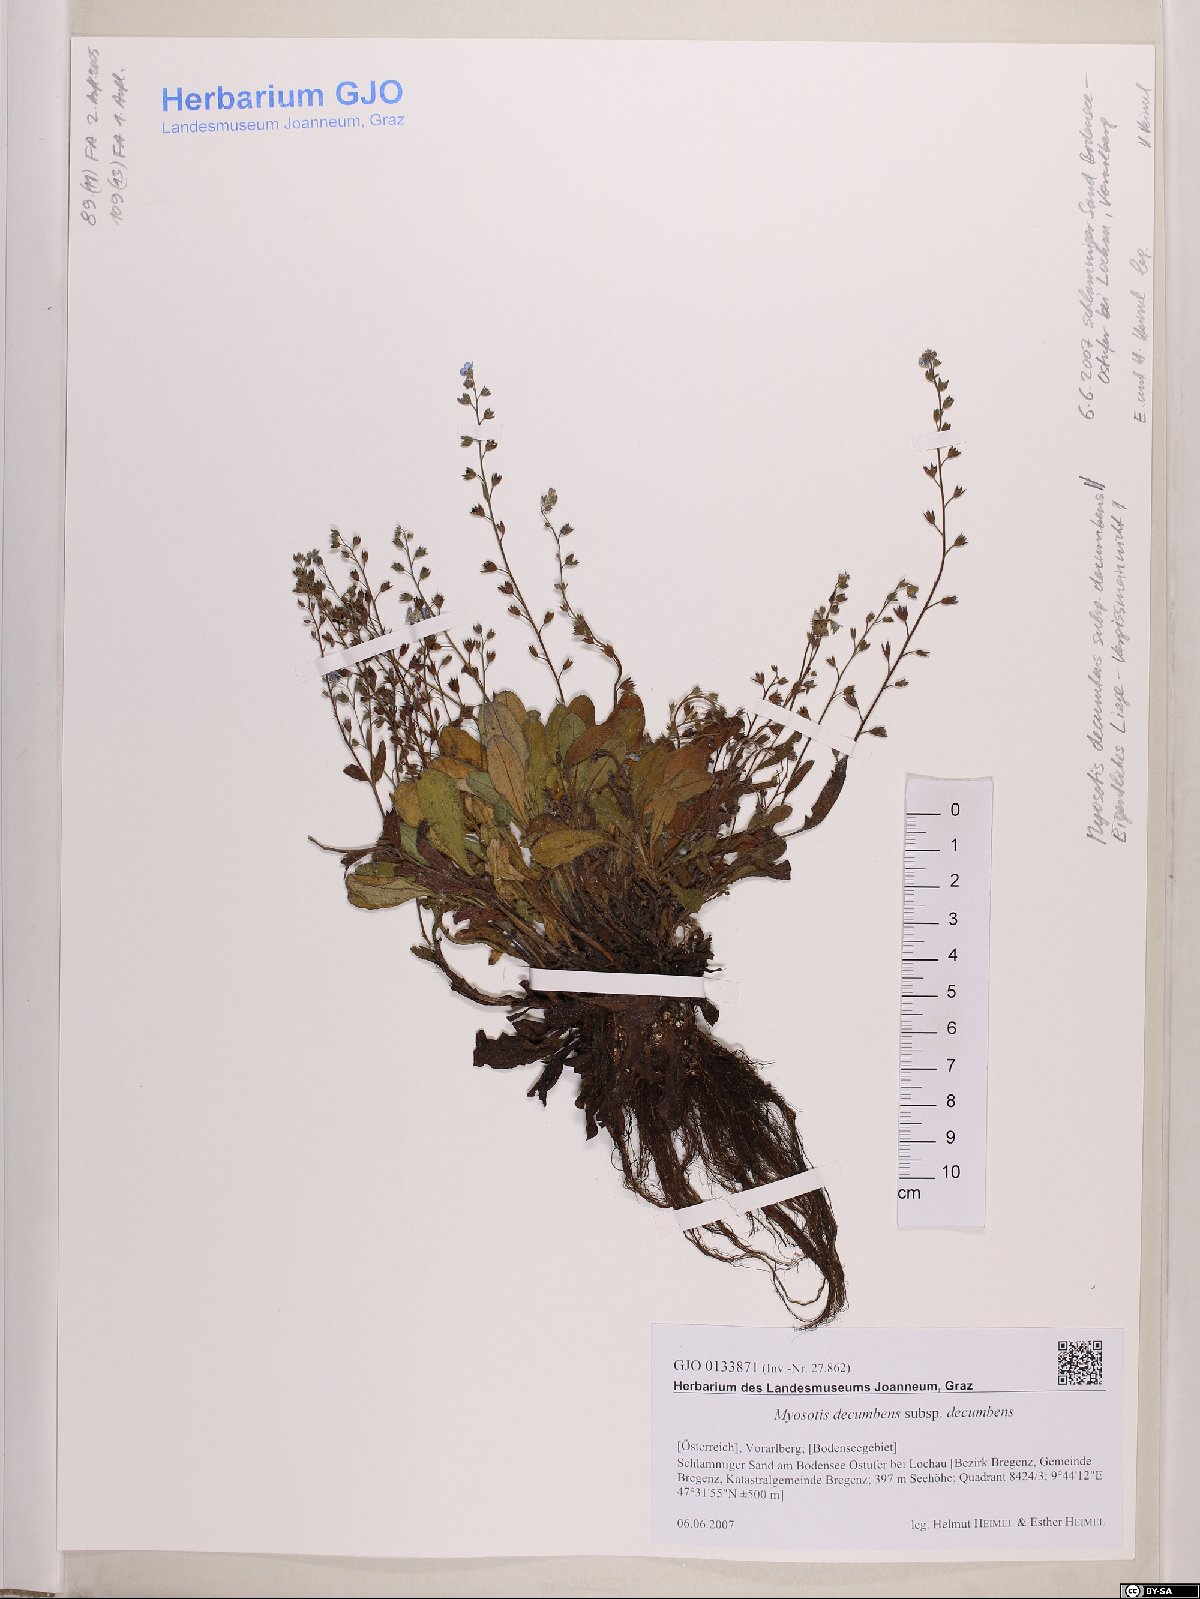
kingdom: Plantae
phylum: Tracheophyta
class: Magnoliopsida
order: Boraginales
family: Boraginaceae
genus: Myosotis
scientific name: Myosotis decumbens
